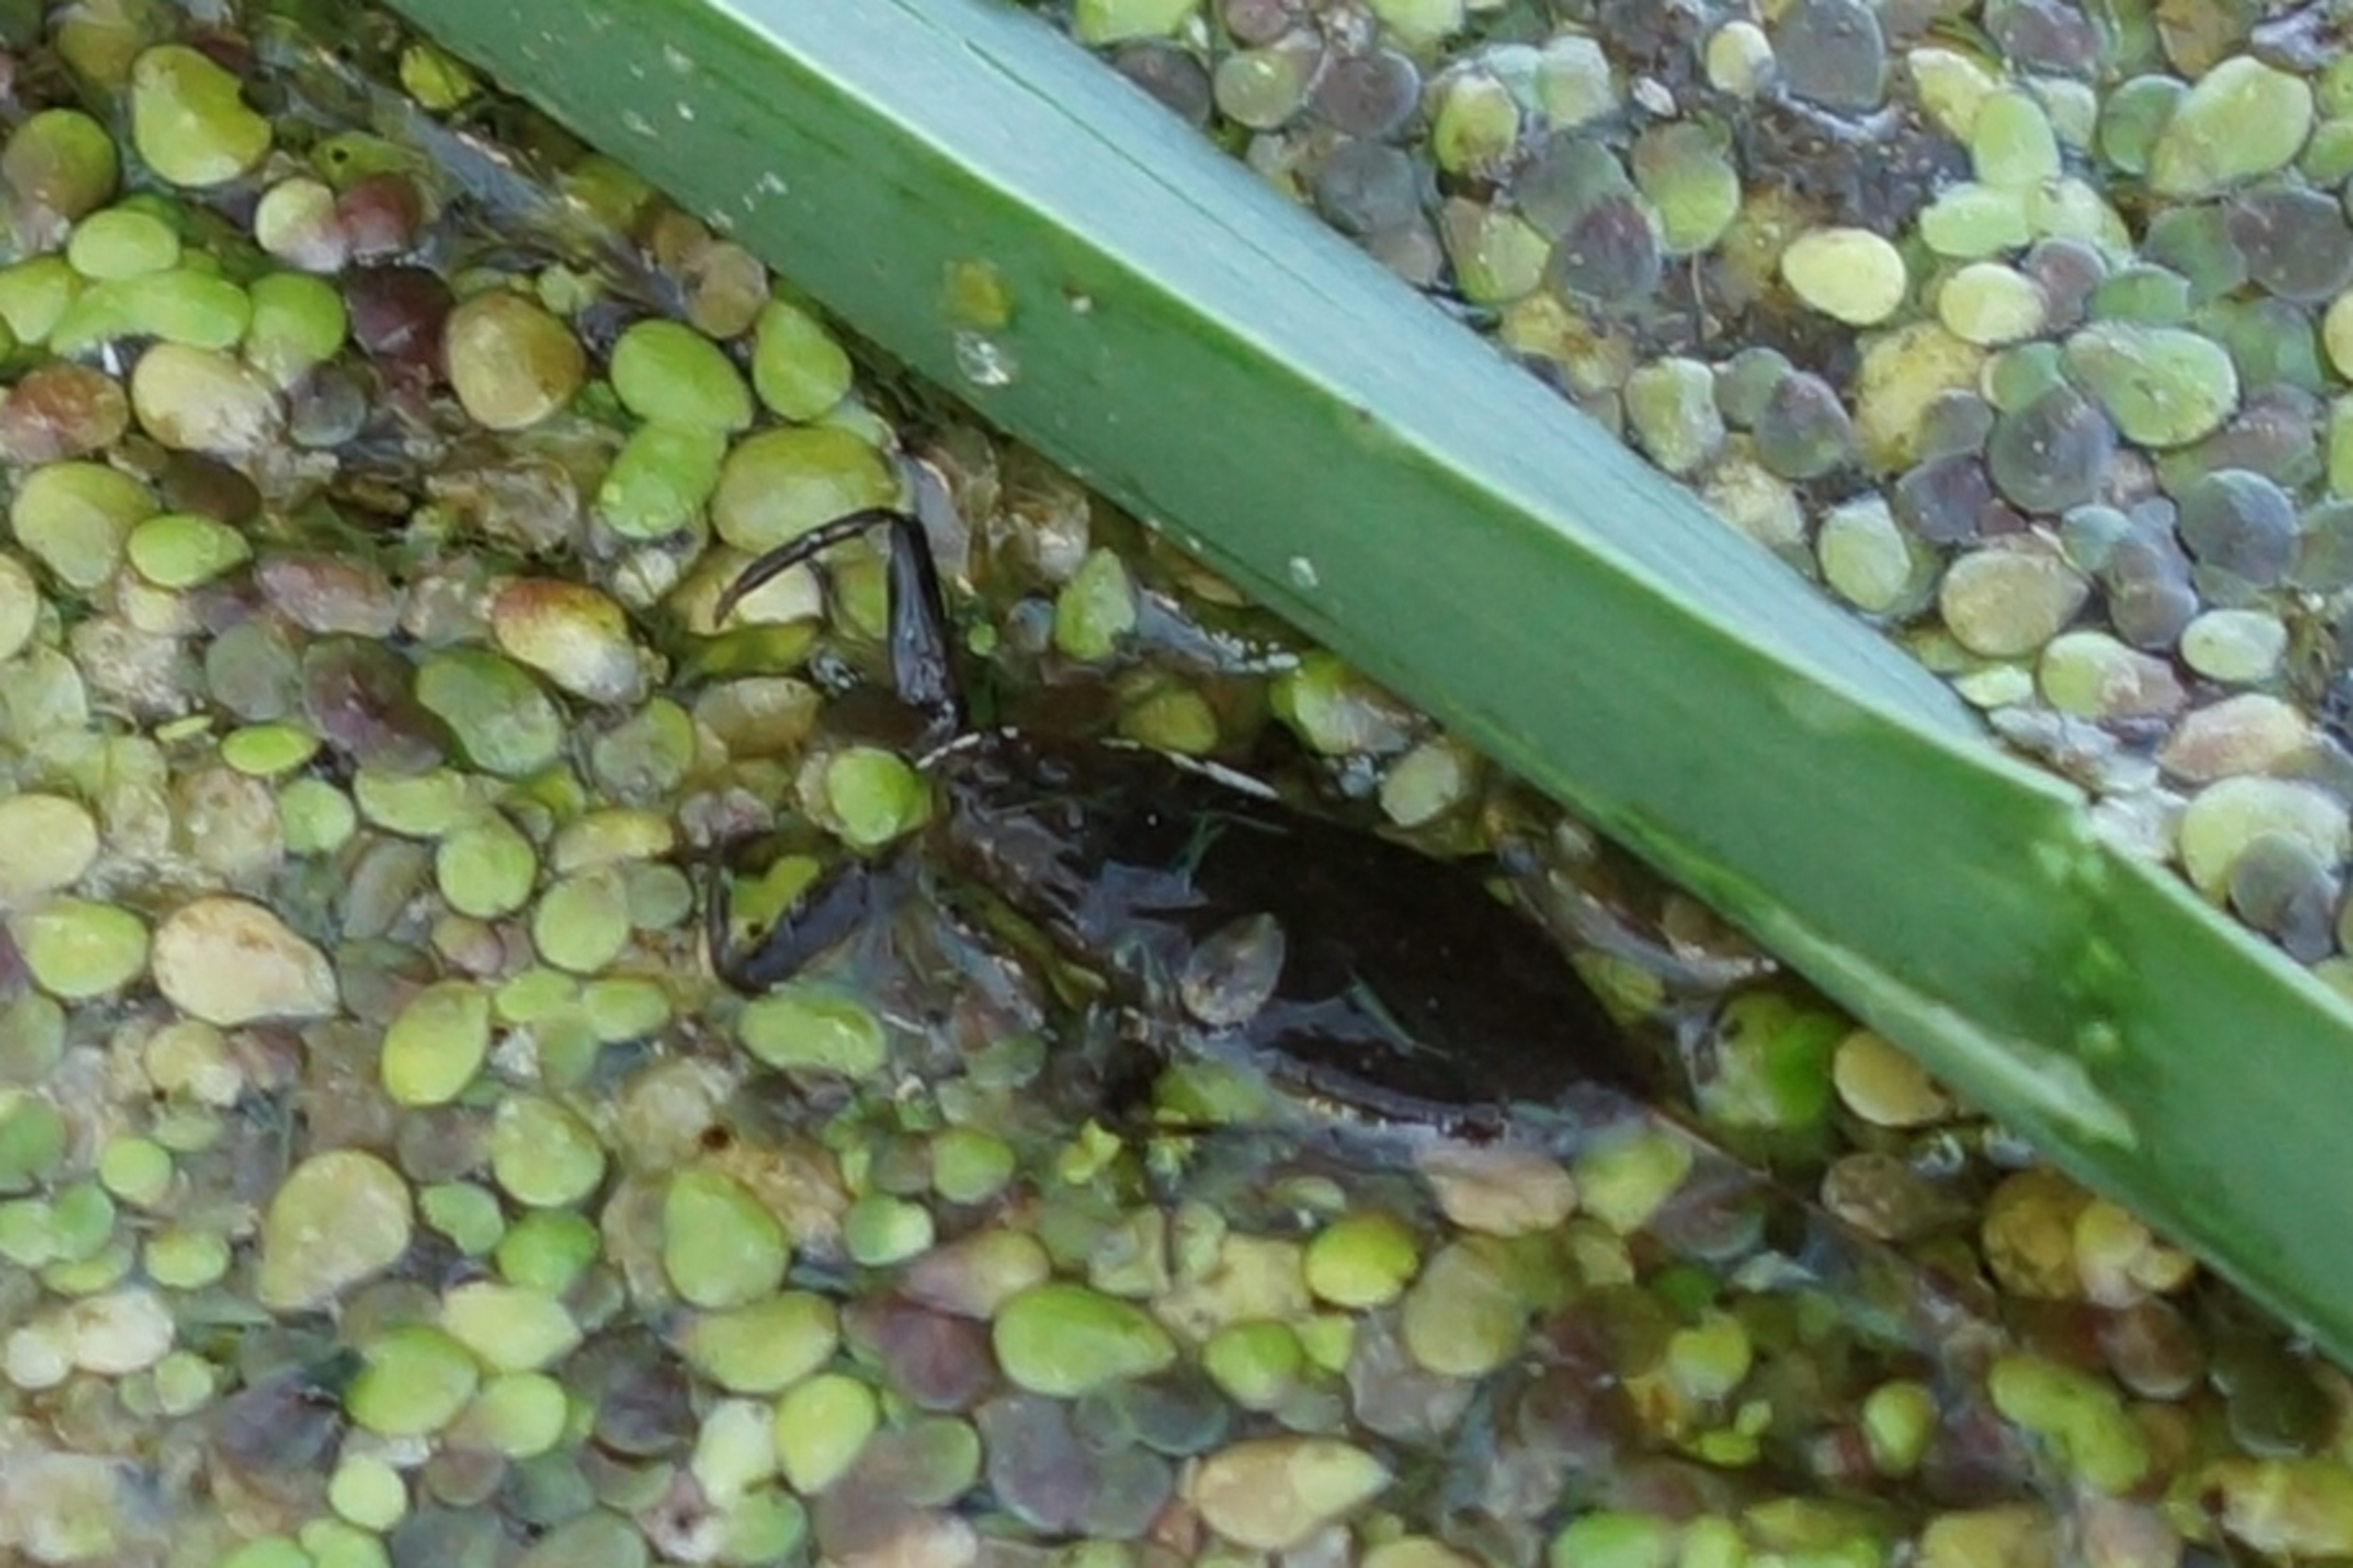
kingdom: Animalia
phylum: Arthropoda
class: Insecta
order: Hemiptera
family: Nepidae
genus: Nepa
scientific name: Nepa cinerea
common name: Skorpiontæge
